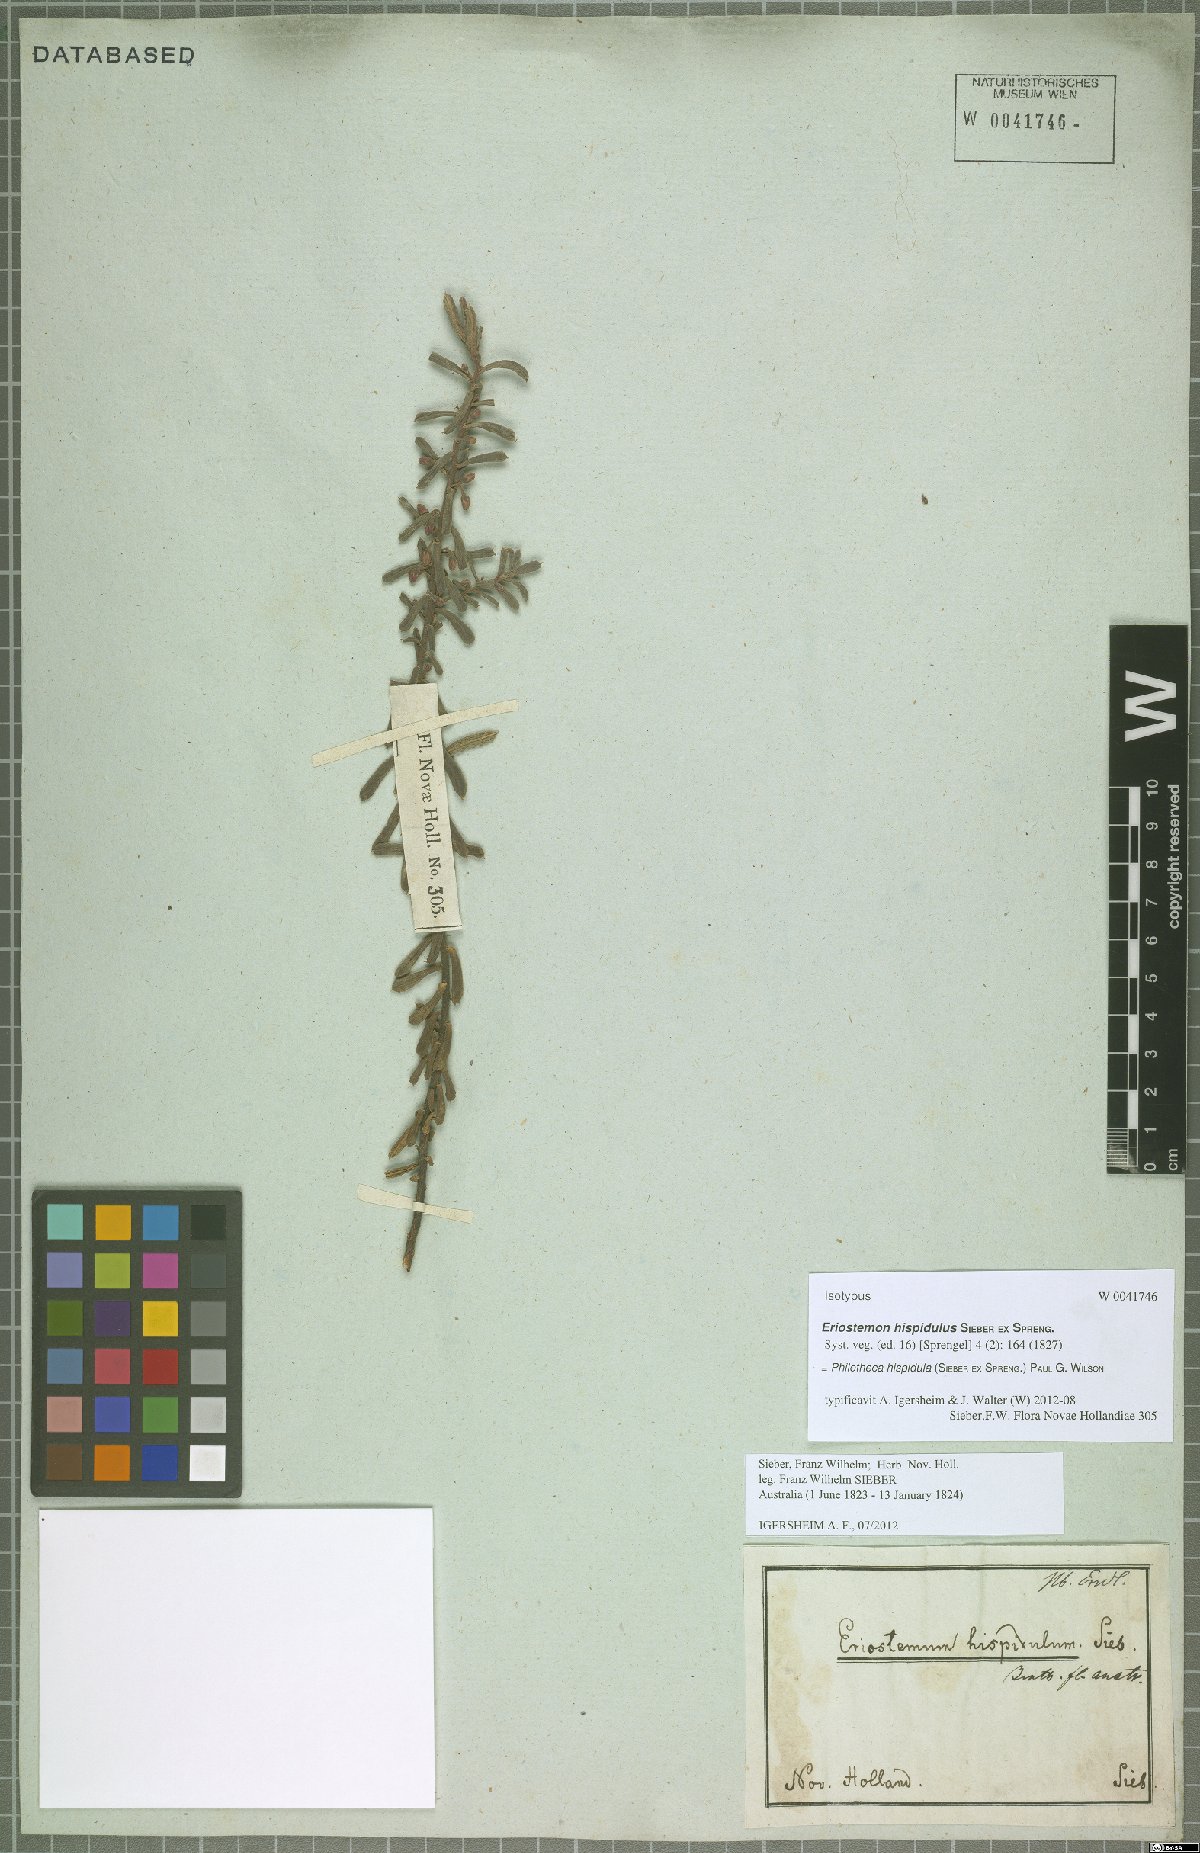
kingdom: Plantae
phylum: Tracheophyta
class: Magnoliopsida
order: Sapindales
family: Rutaceae
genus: Philotheca
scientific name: Philotheca hispidula
